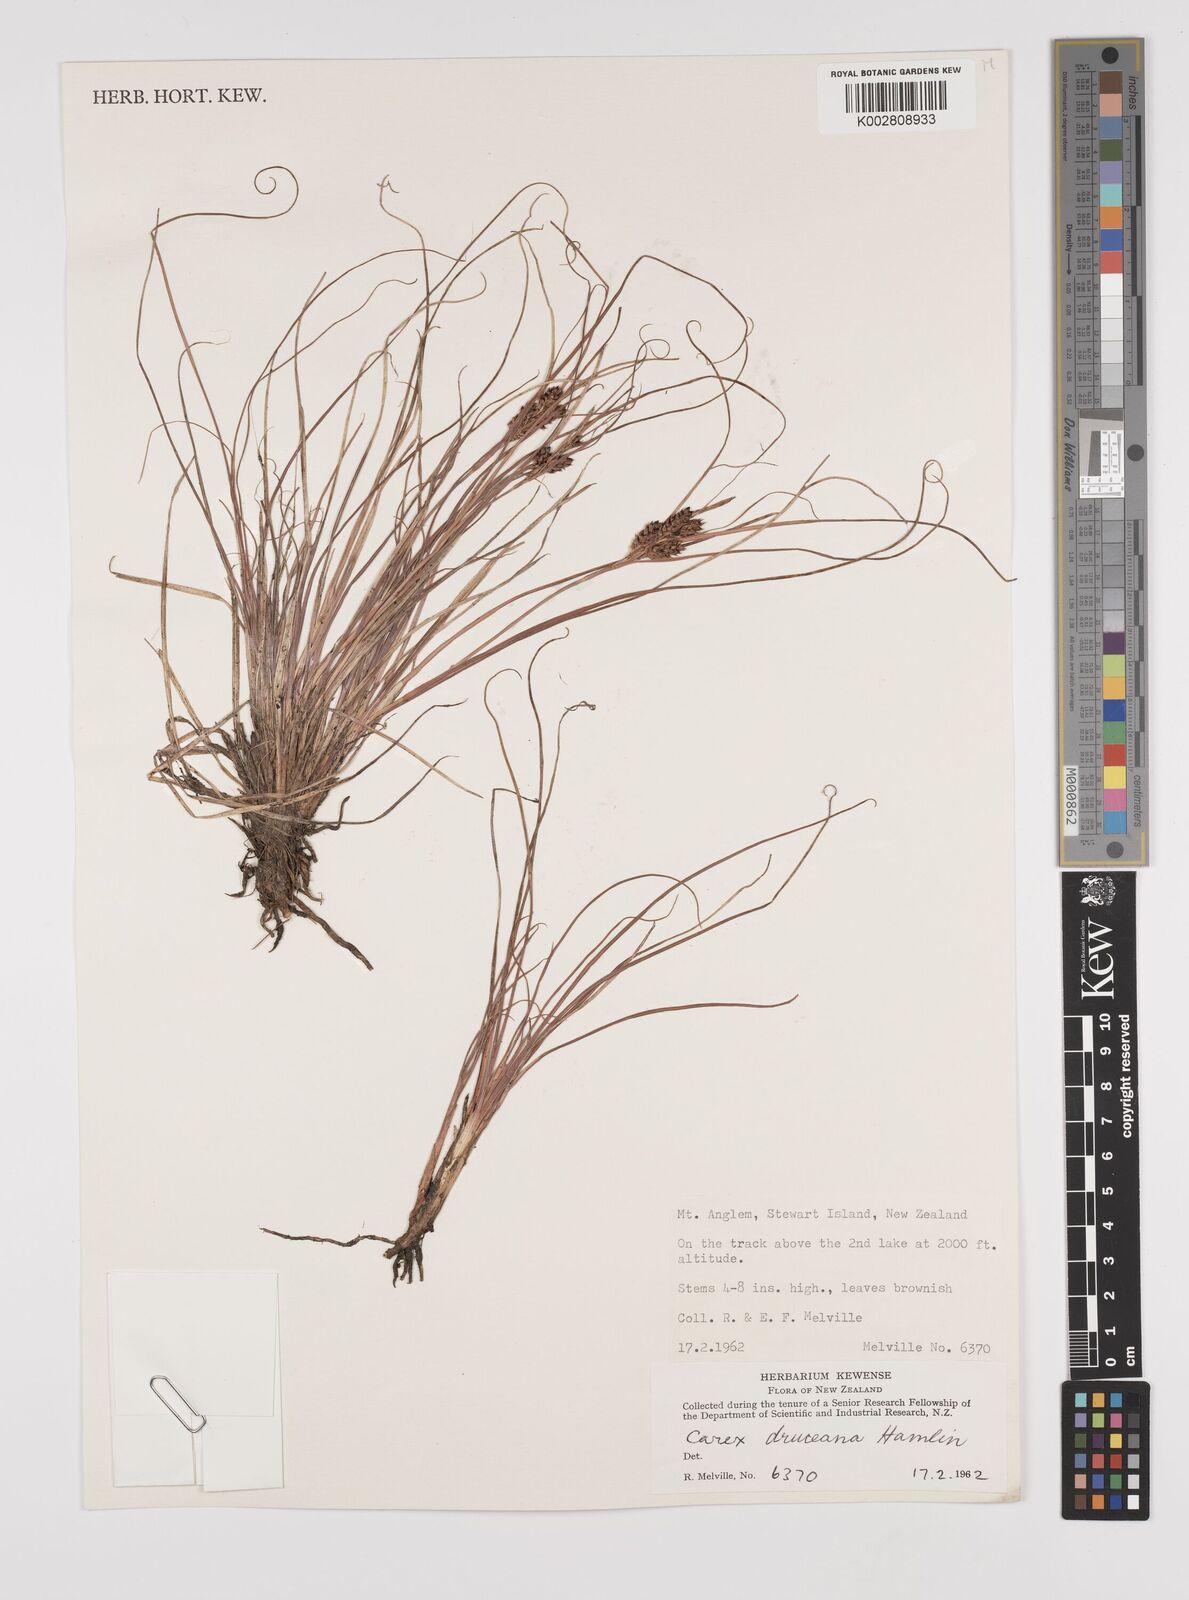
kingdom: Plantae
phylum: Tracheophyta
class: Liliopsida
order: Poales
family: Cyperaceae
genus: Carex
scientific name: Carex druceana
